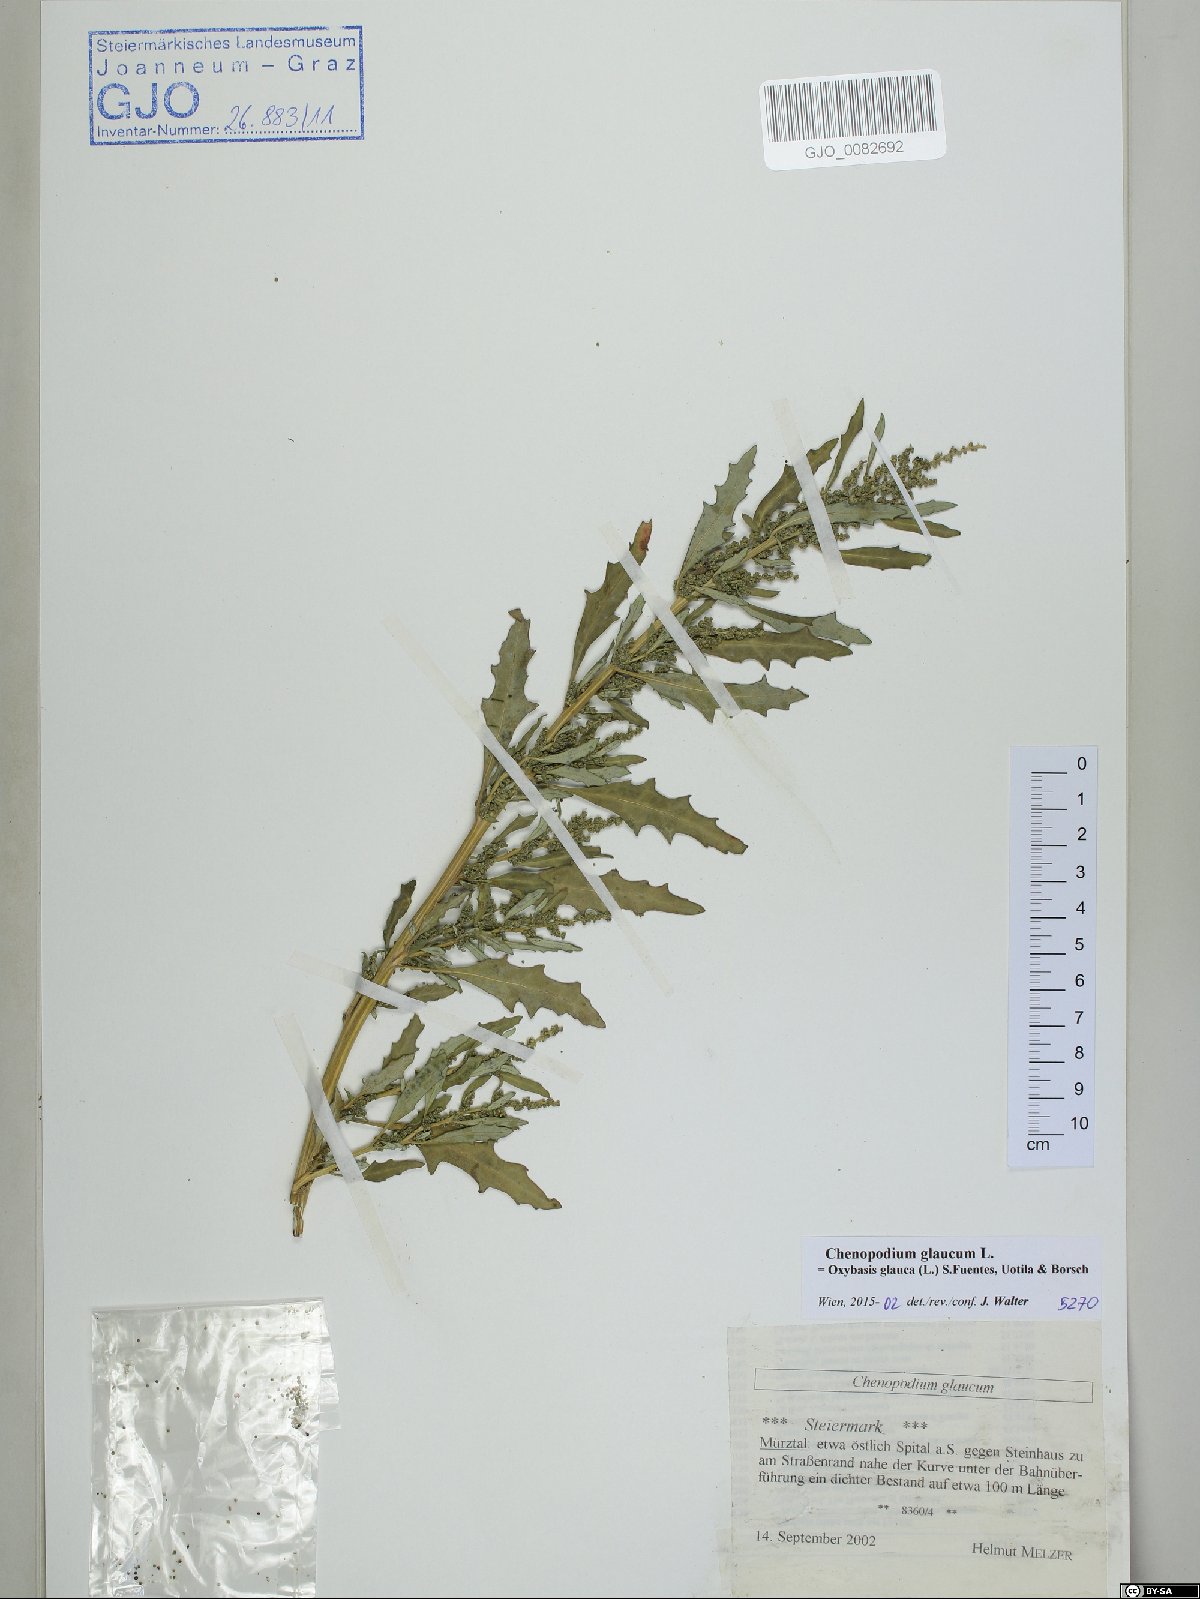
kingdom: Plantae
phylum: Tracheophyta
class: Magnoliopsida
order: Caryophyllales
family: Amaranthaceae
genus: Oxybasis
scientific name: Oxybasis glauca
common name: Glaucous goosefoot
